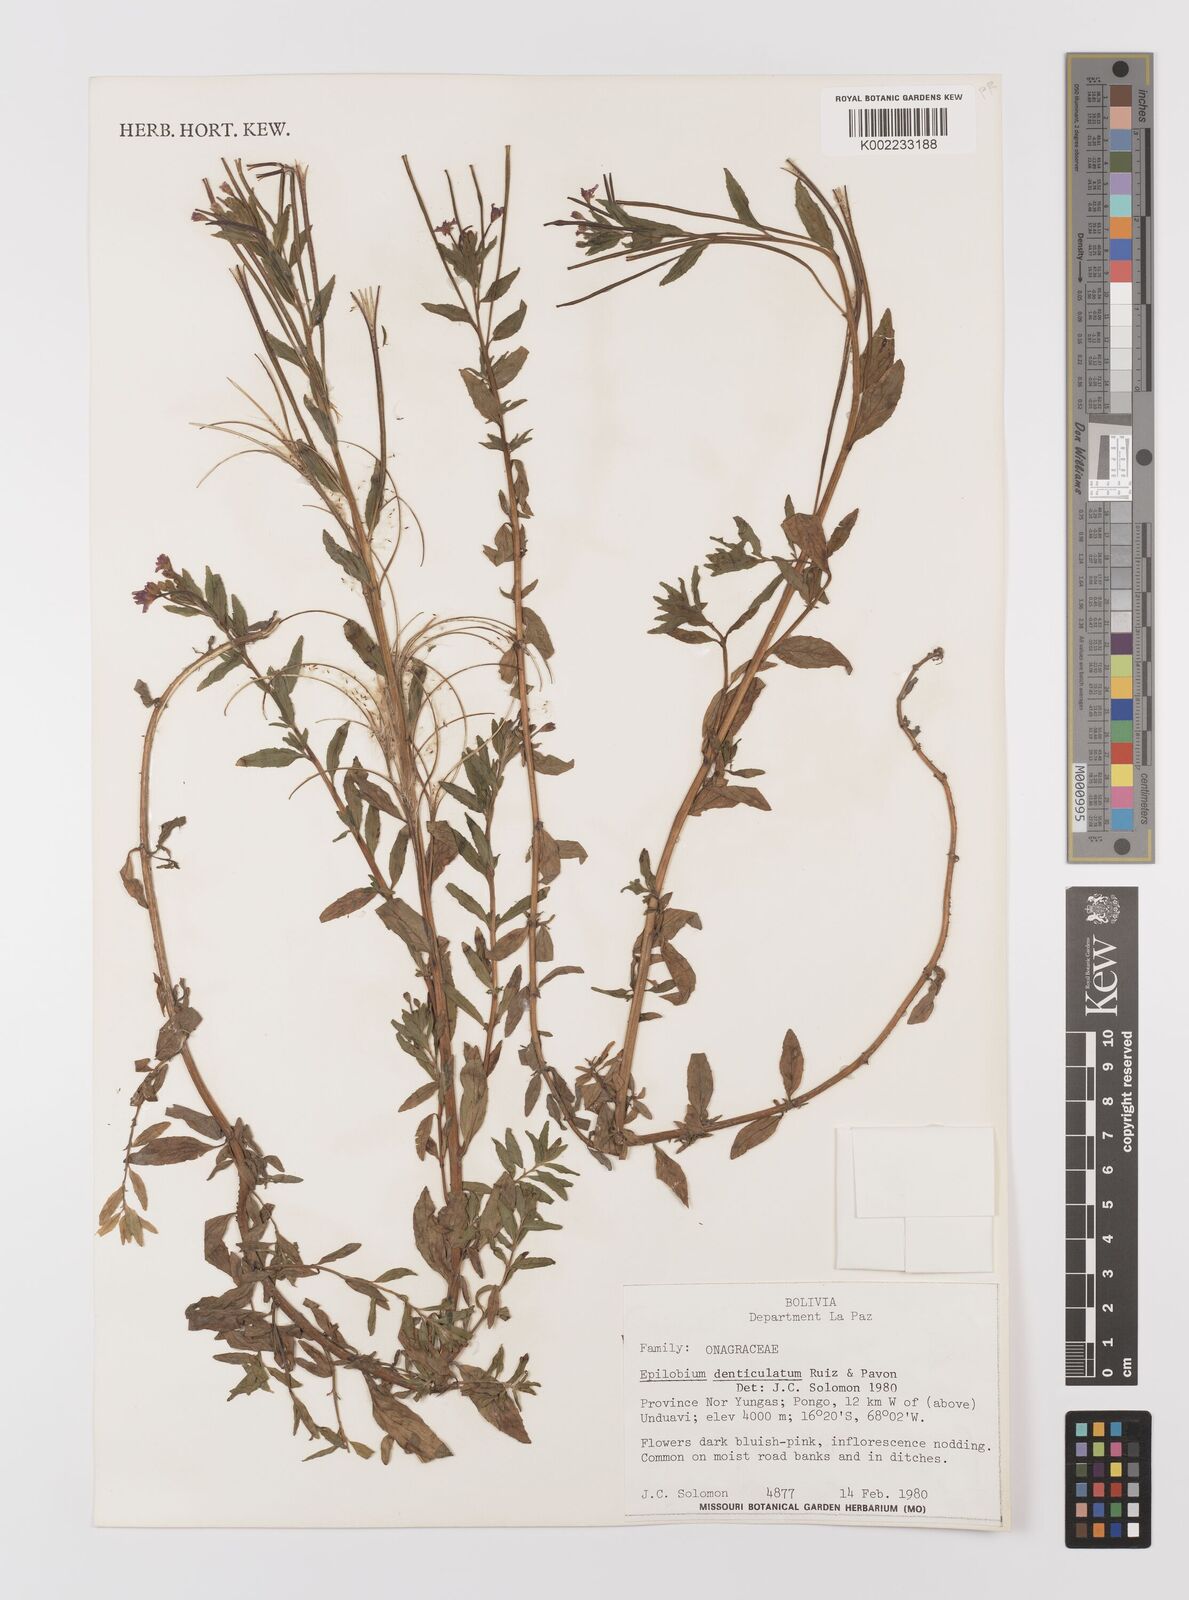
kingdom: Plantae
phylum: Tracheophyta
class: Magnoliopsida
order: Myrtales
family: Onagraceae
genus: Epilobium
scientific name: Epilobium denticulatum
